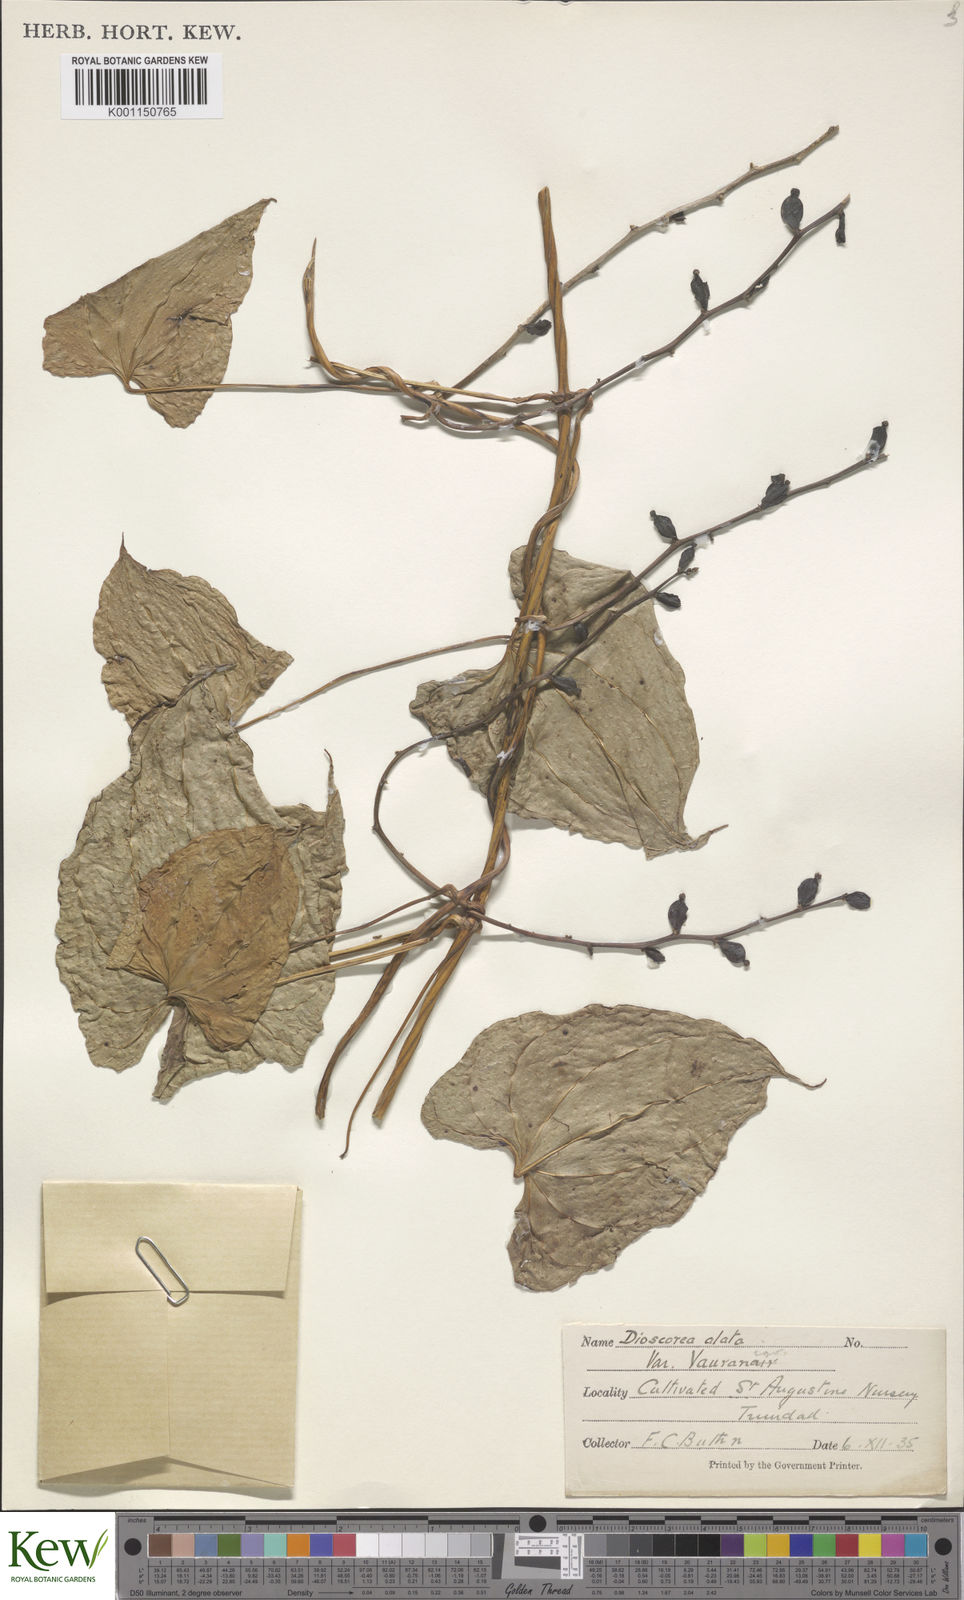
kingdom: Plantae
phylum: Tracheophyta
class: Liliopsida
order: Dioscoreales
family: Dioscoreaceae
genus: Dioscorea
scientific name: Dioscorea alata
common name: Water yam
